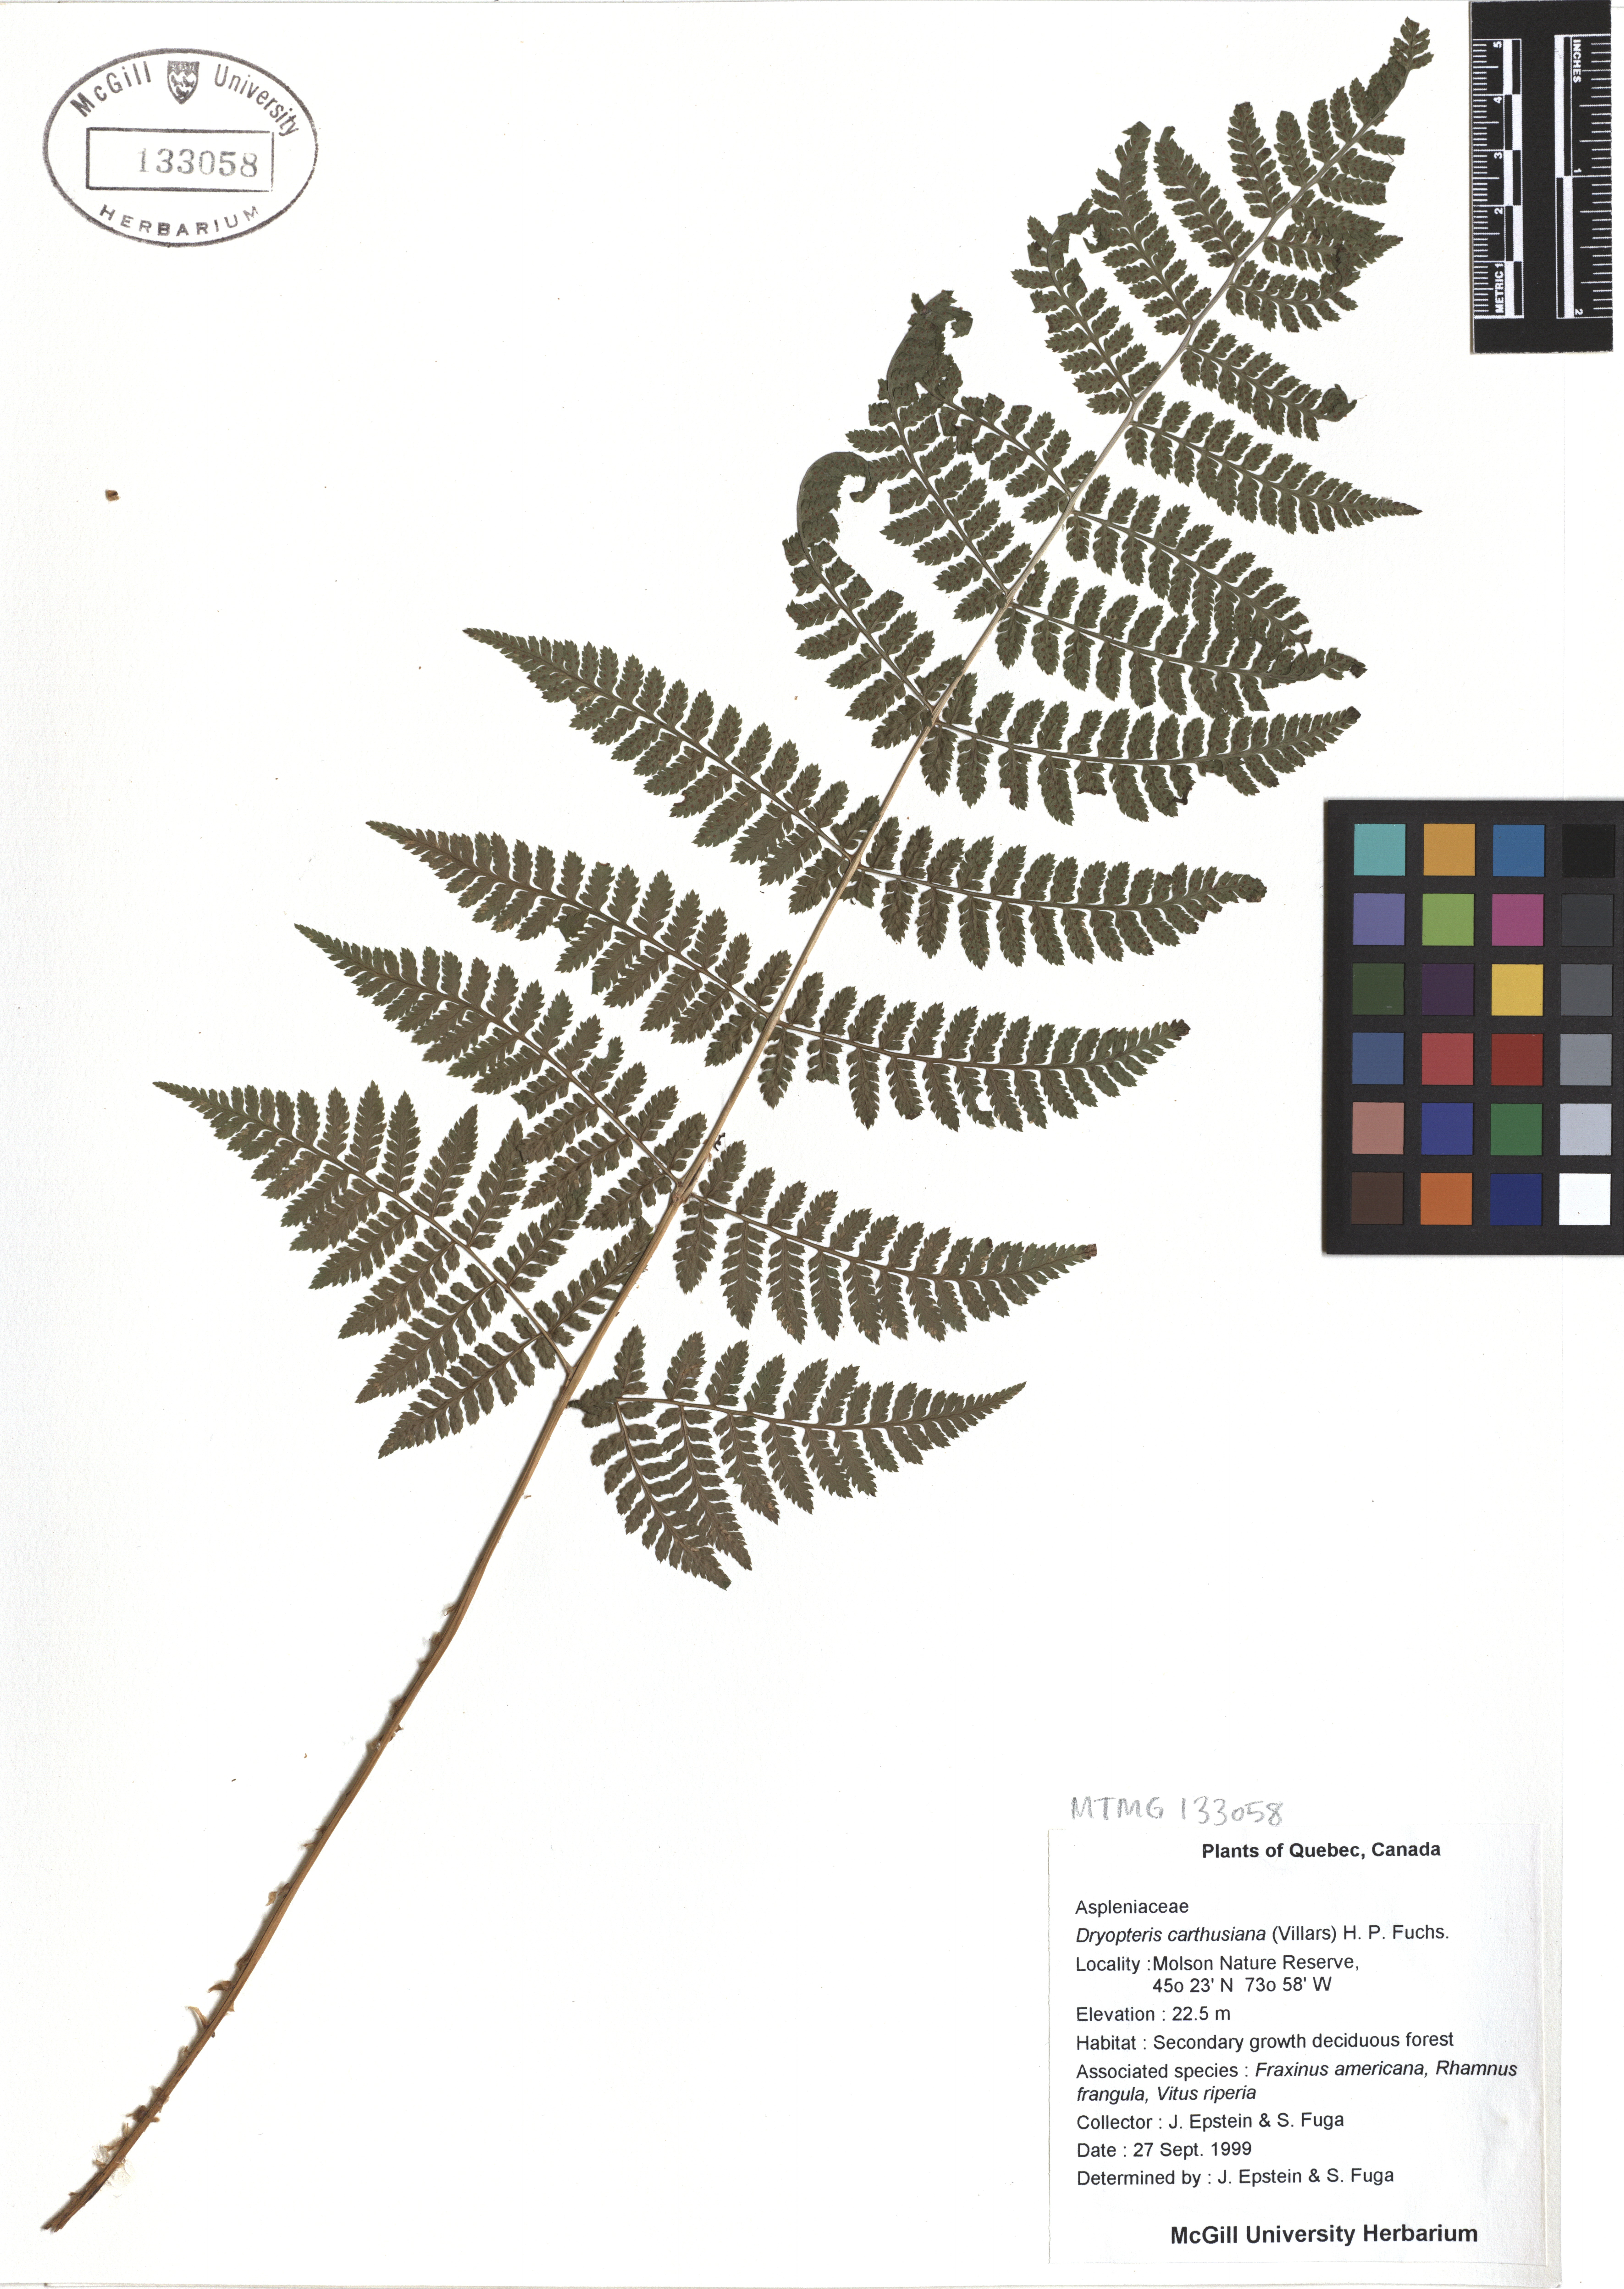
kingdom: Plantae
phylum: Tracheophyta
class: Polypodiopsida
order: Polypodiales
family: Dryopteridaceae
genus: Dryopteris
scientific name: Dryopteris carthusiana
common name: Narrow buckler-fern
